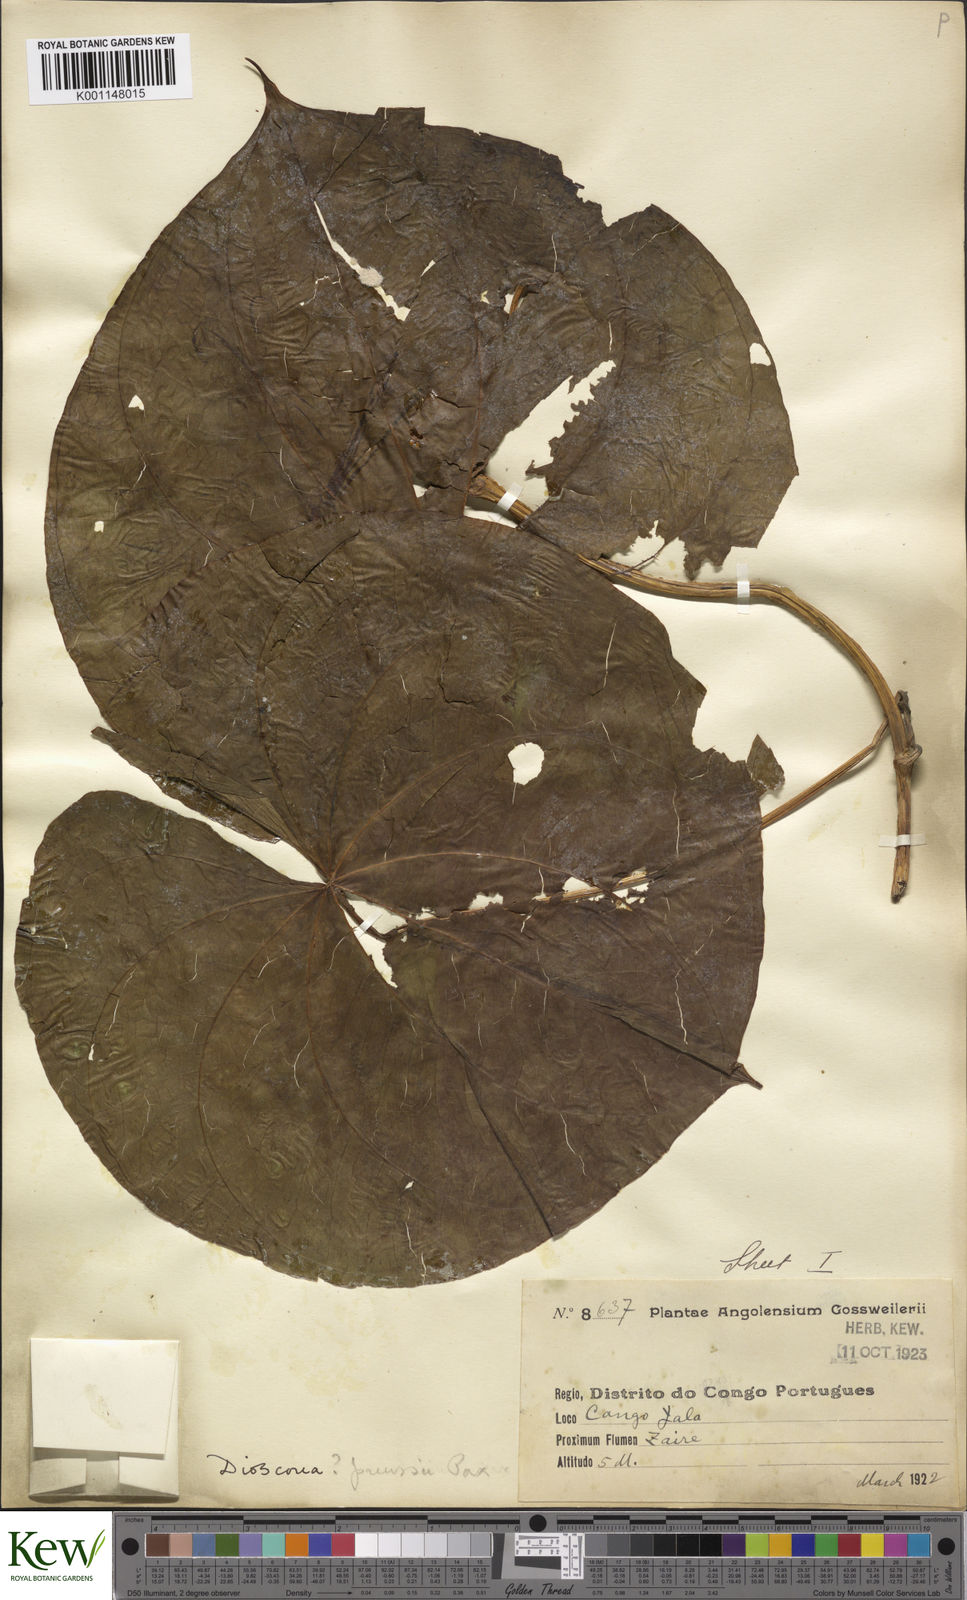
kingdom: Plantae
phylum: Tracheophyta
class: Liliopsida
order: Dioscoreales
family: Dioscoreaceae
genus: Dioscorea
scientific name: Dioscorea preussii
